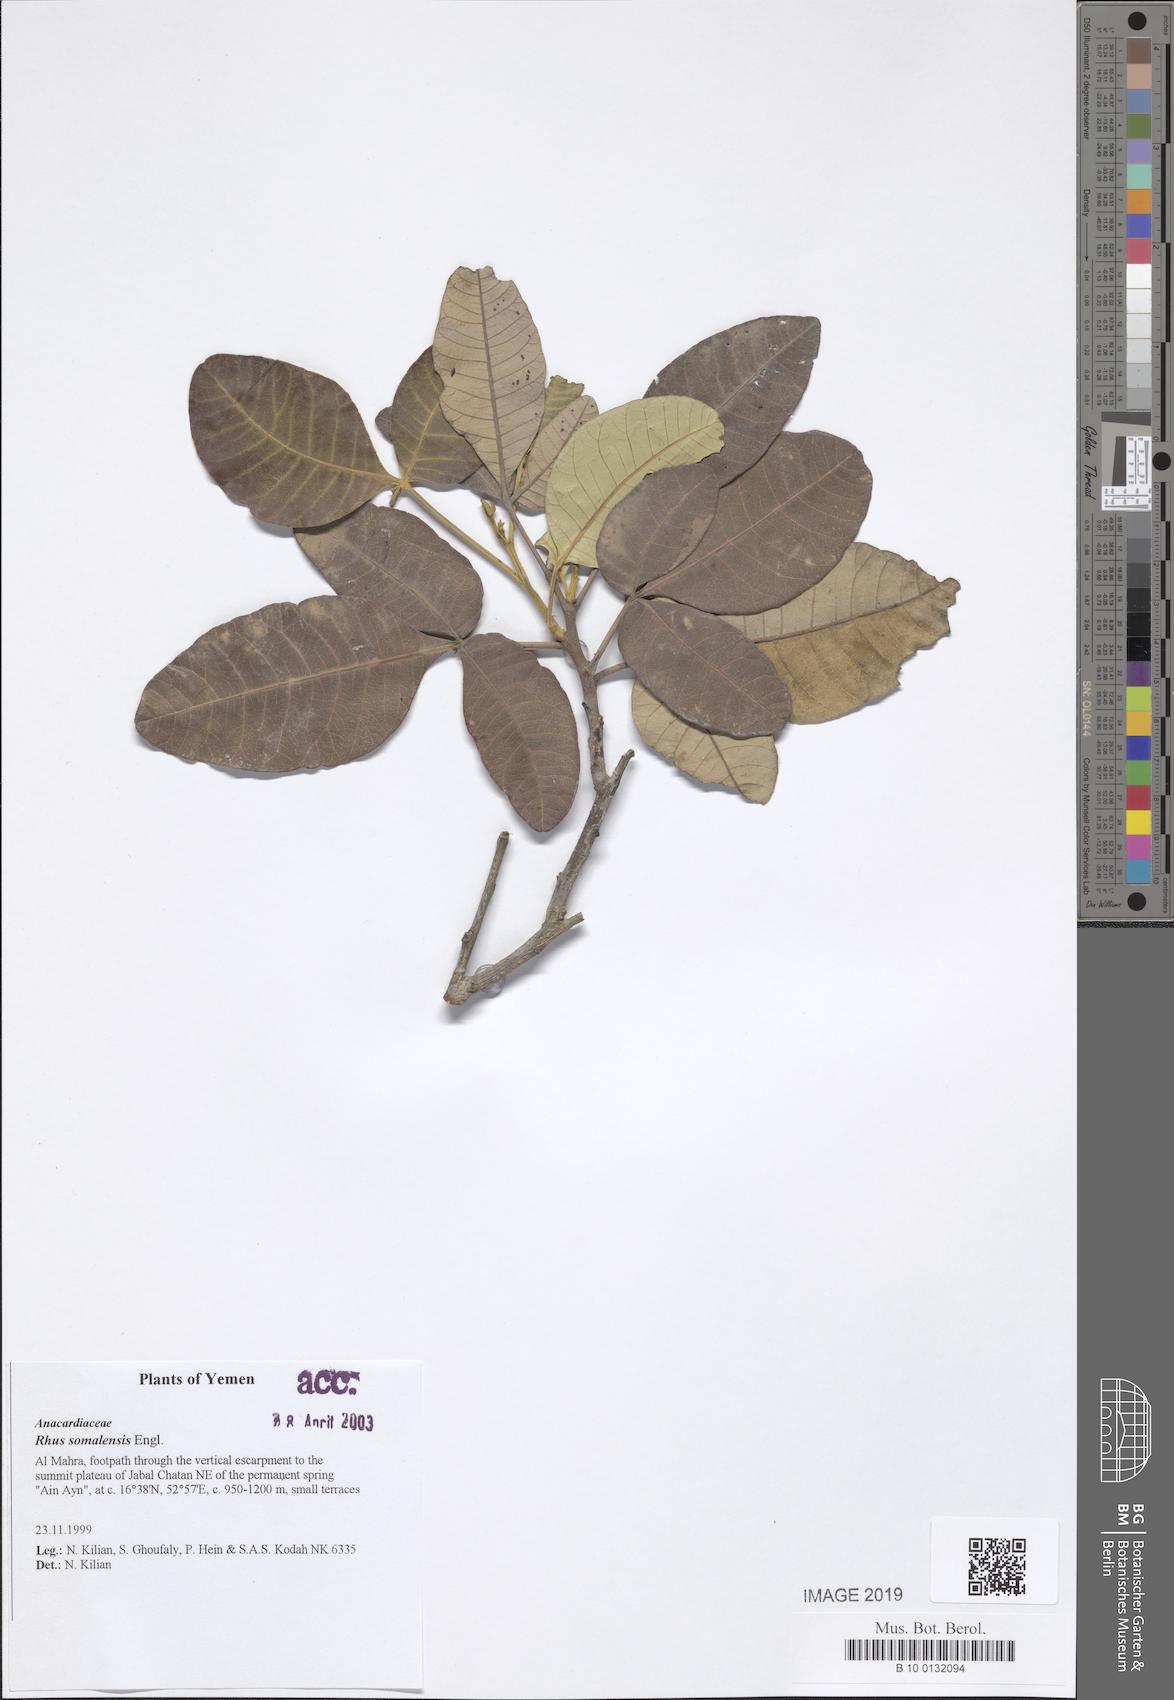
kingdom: Plantae
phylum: Tracheophyta
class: Magnoliopsida
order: Sapindales
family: Anacardiaceae
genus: Searsia
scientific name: Searsia somalensis
